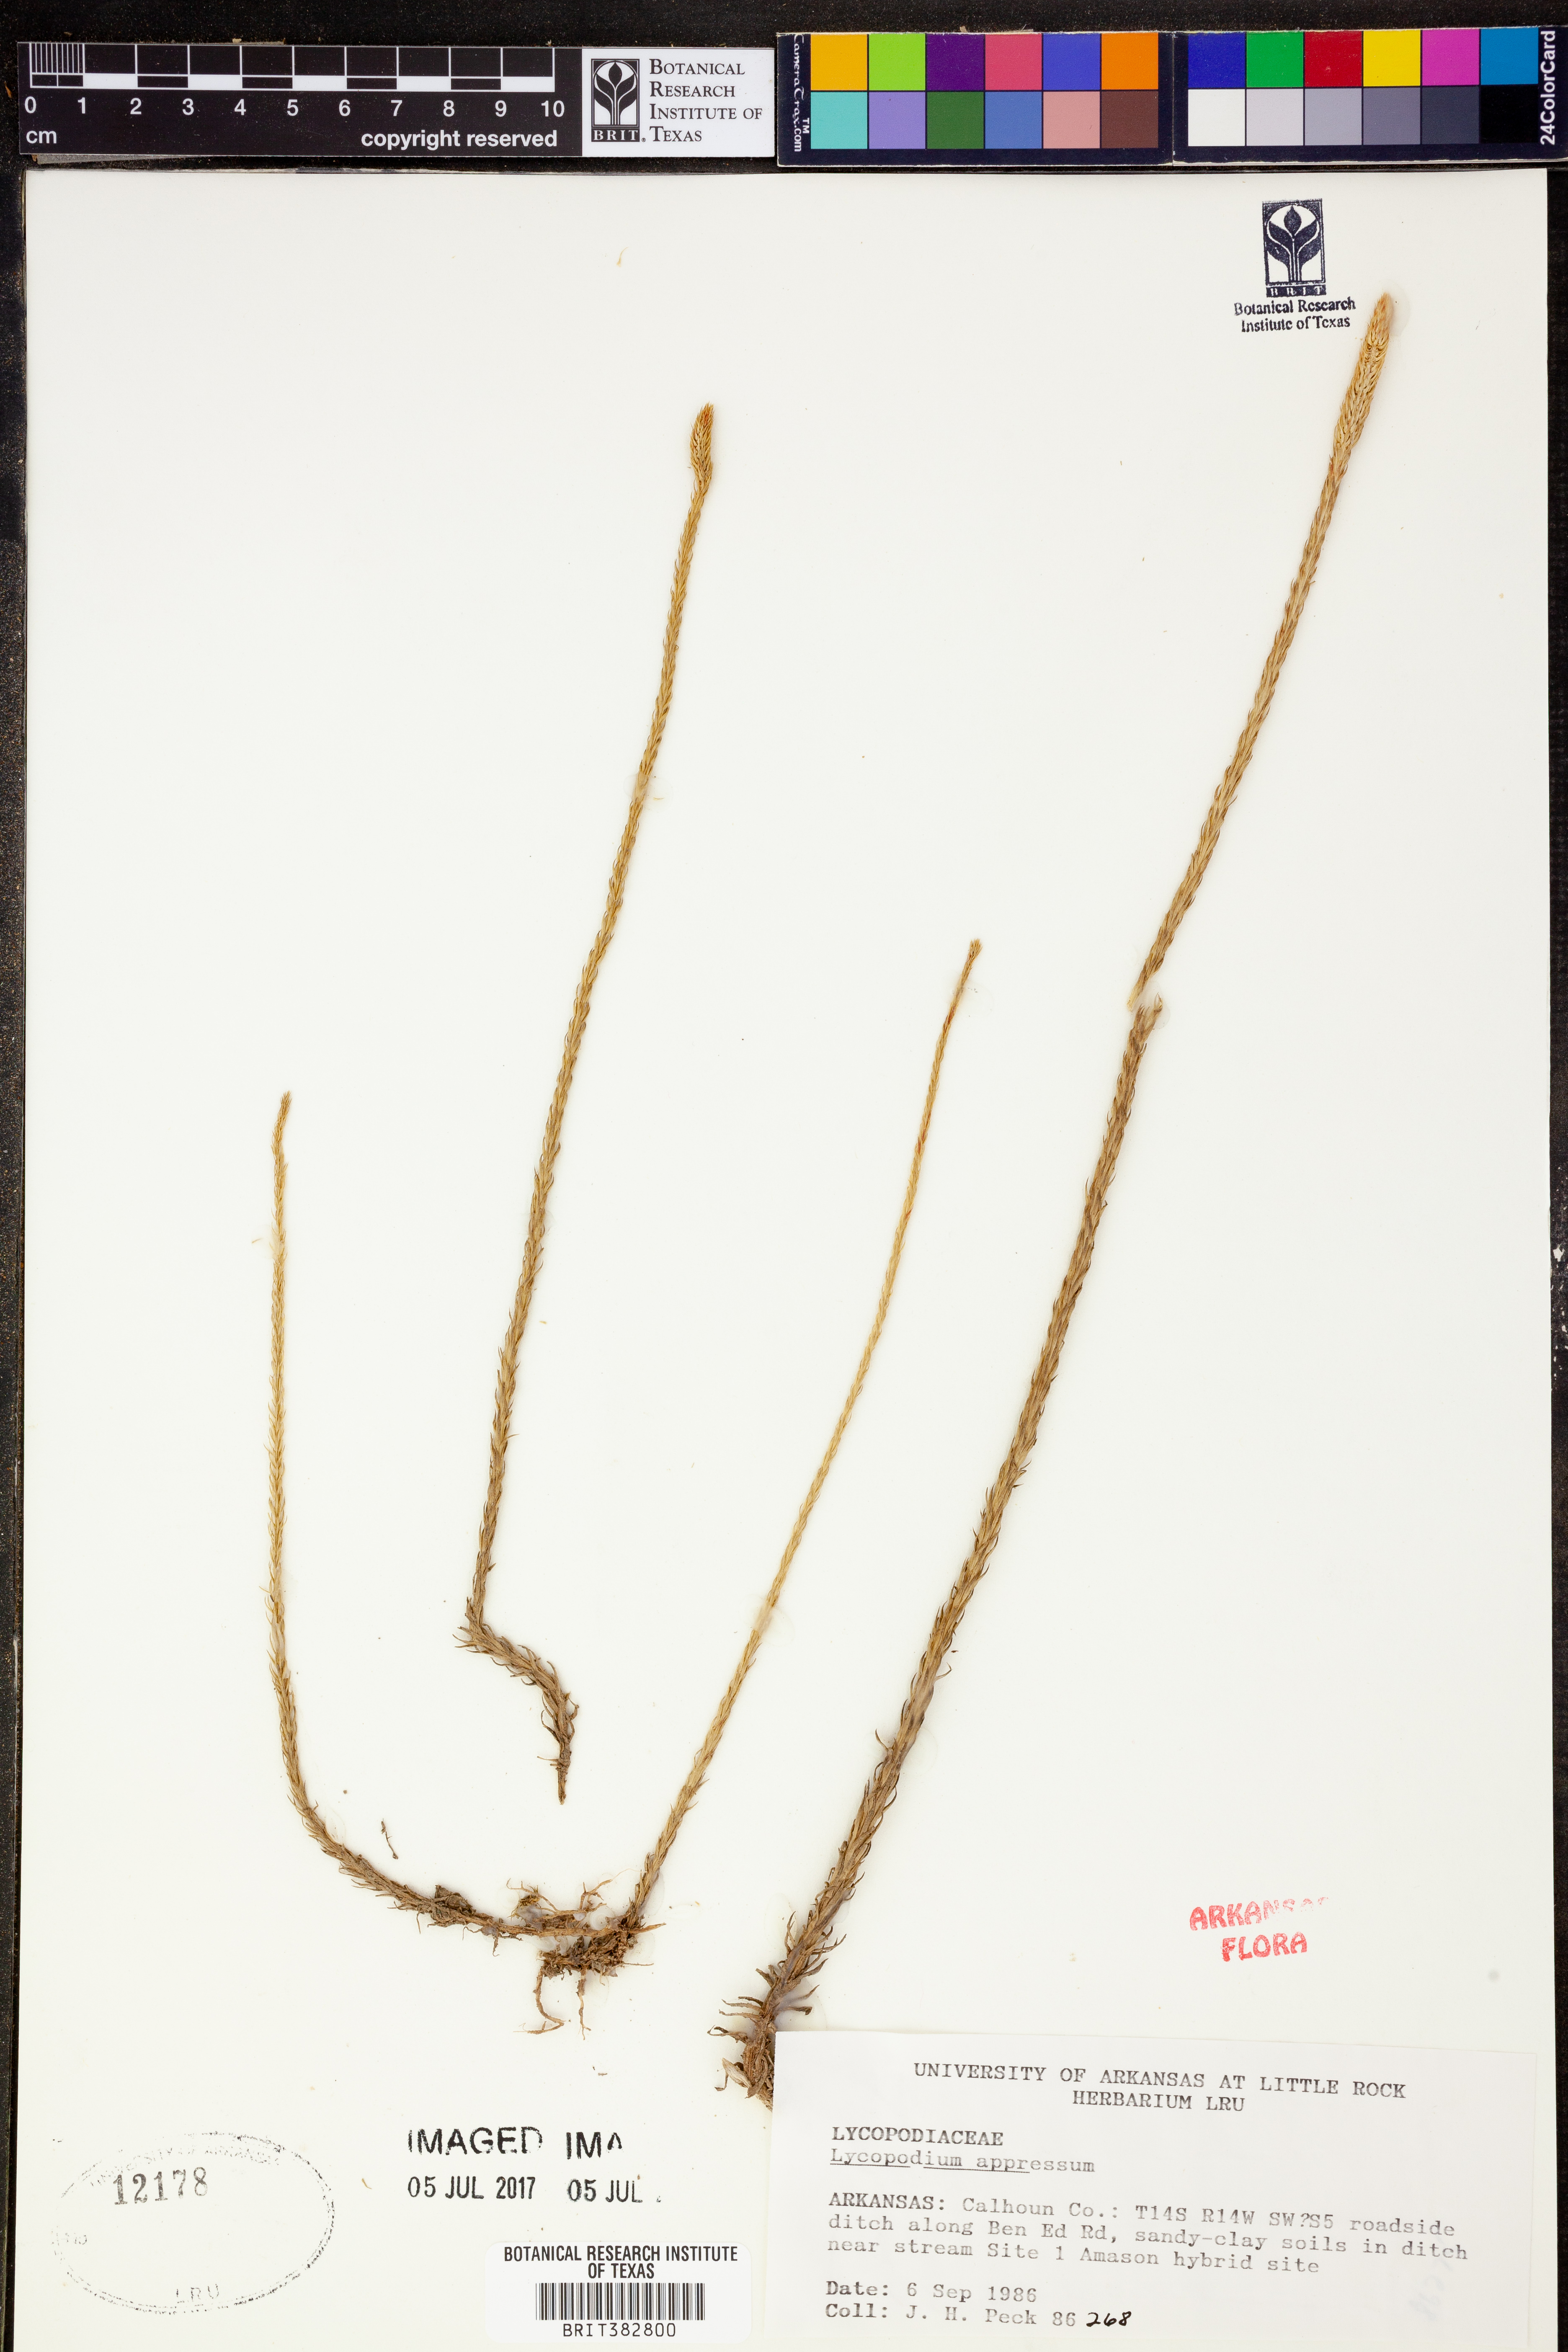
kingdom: Plantae
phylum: Tracheophyta
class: Lycopodiopsida
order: Lycopodiales
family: Lycopodiaceae
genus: Lycopodiella
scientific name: Lycopodiella appressa
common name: Appressed bog clubmoss
